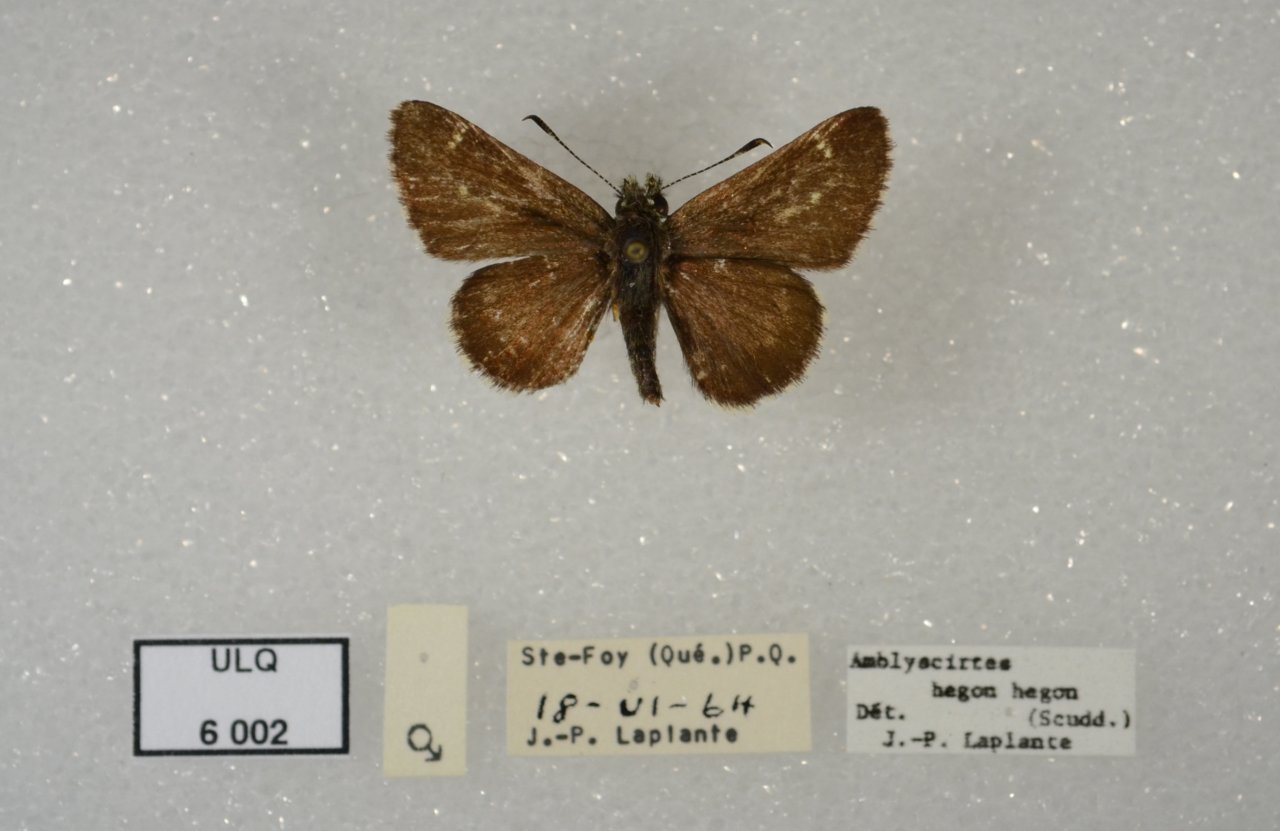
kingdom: Animalia
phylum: Arthropoda
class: Insecta
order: Lepidoptera
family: Hesperiidae
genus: Mastor
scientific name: Mastor hegon
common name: Pepper and Salt Skipper
